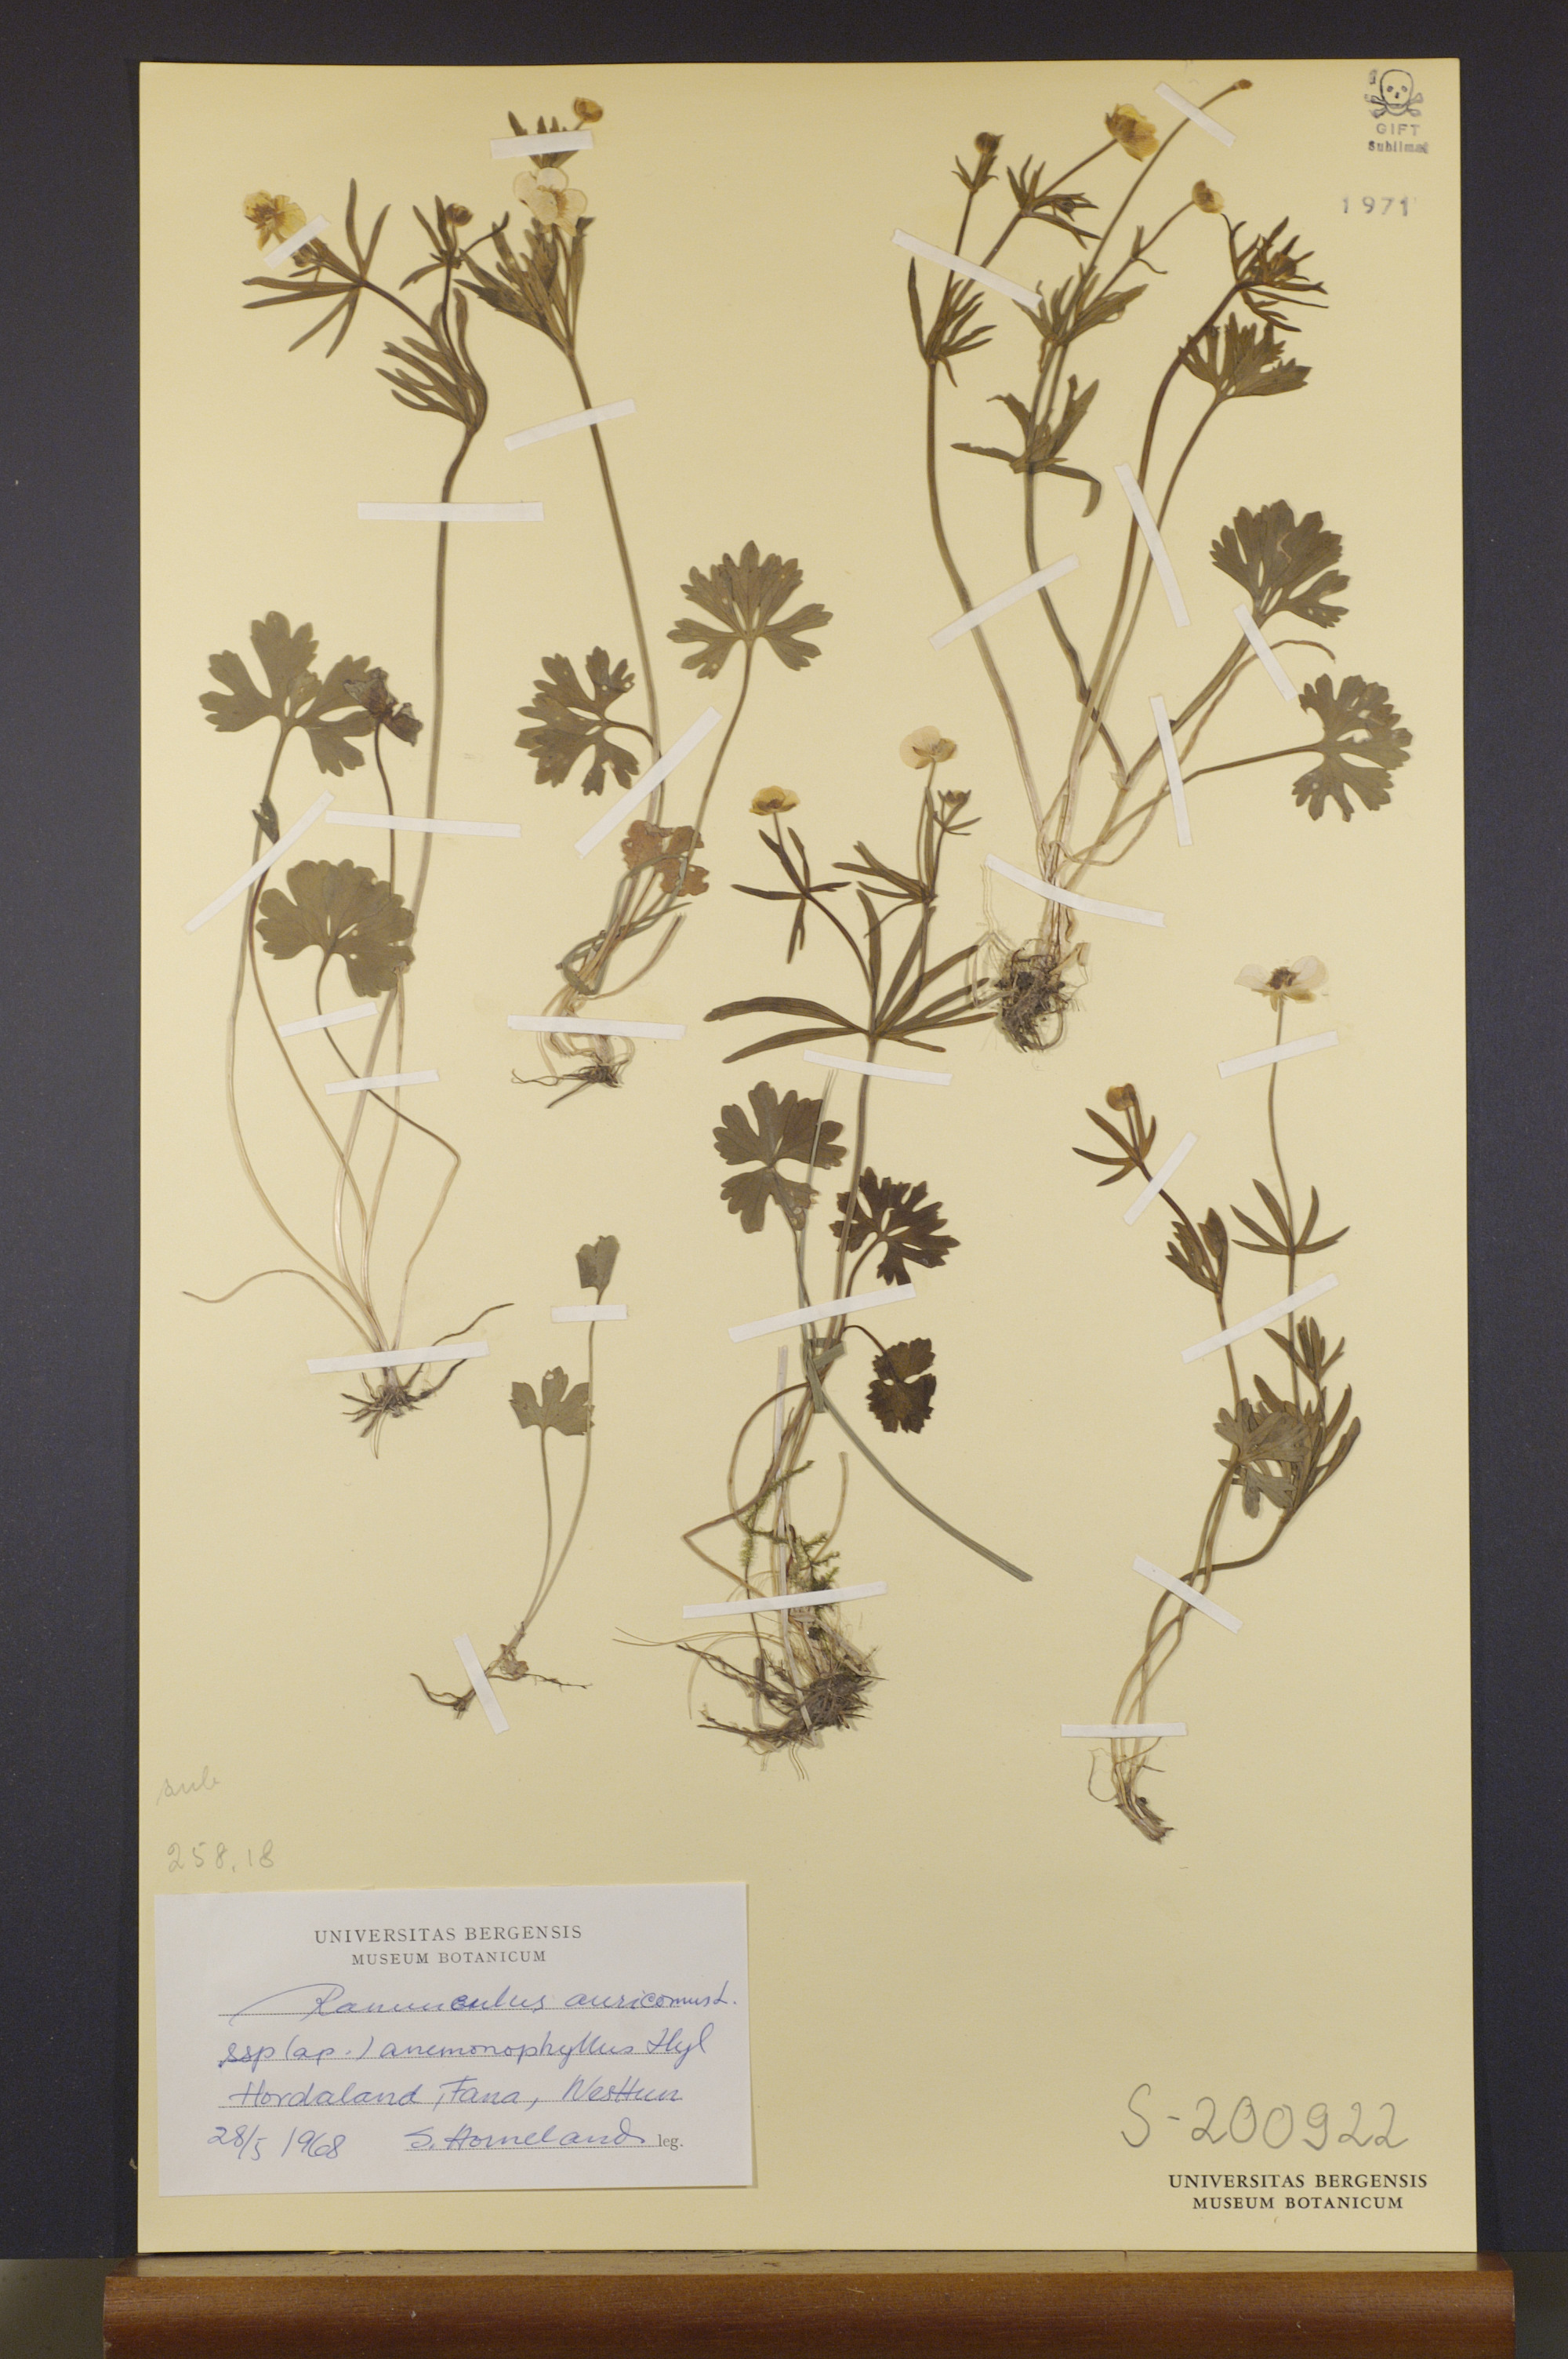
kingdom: Plantae
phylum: Tracheophyta
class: Magnoliopsida
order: Ranunculales
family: Ranunculaceae
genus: Ranunculus
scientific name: Ranunculus anemonophyllus
